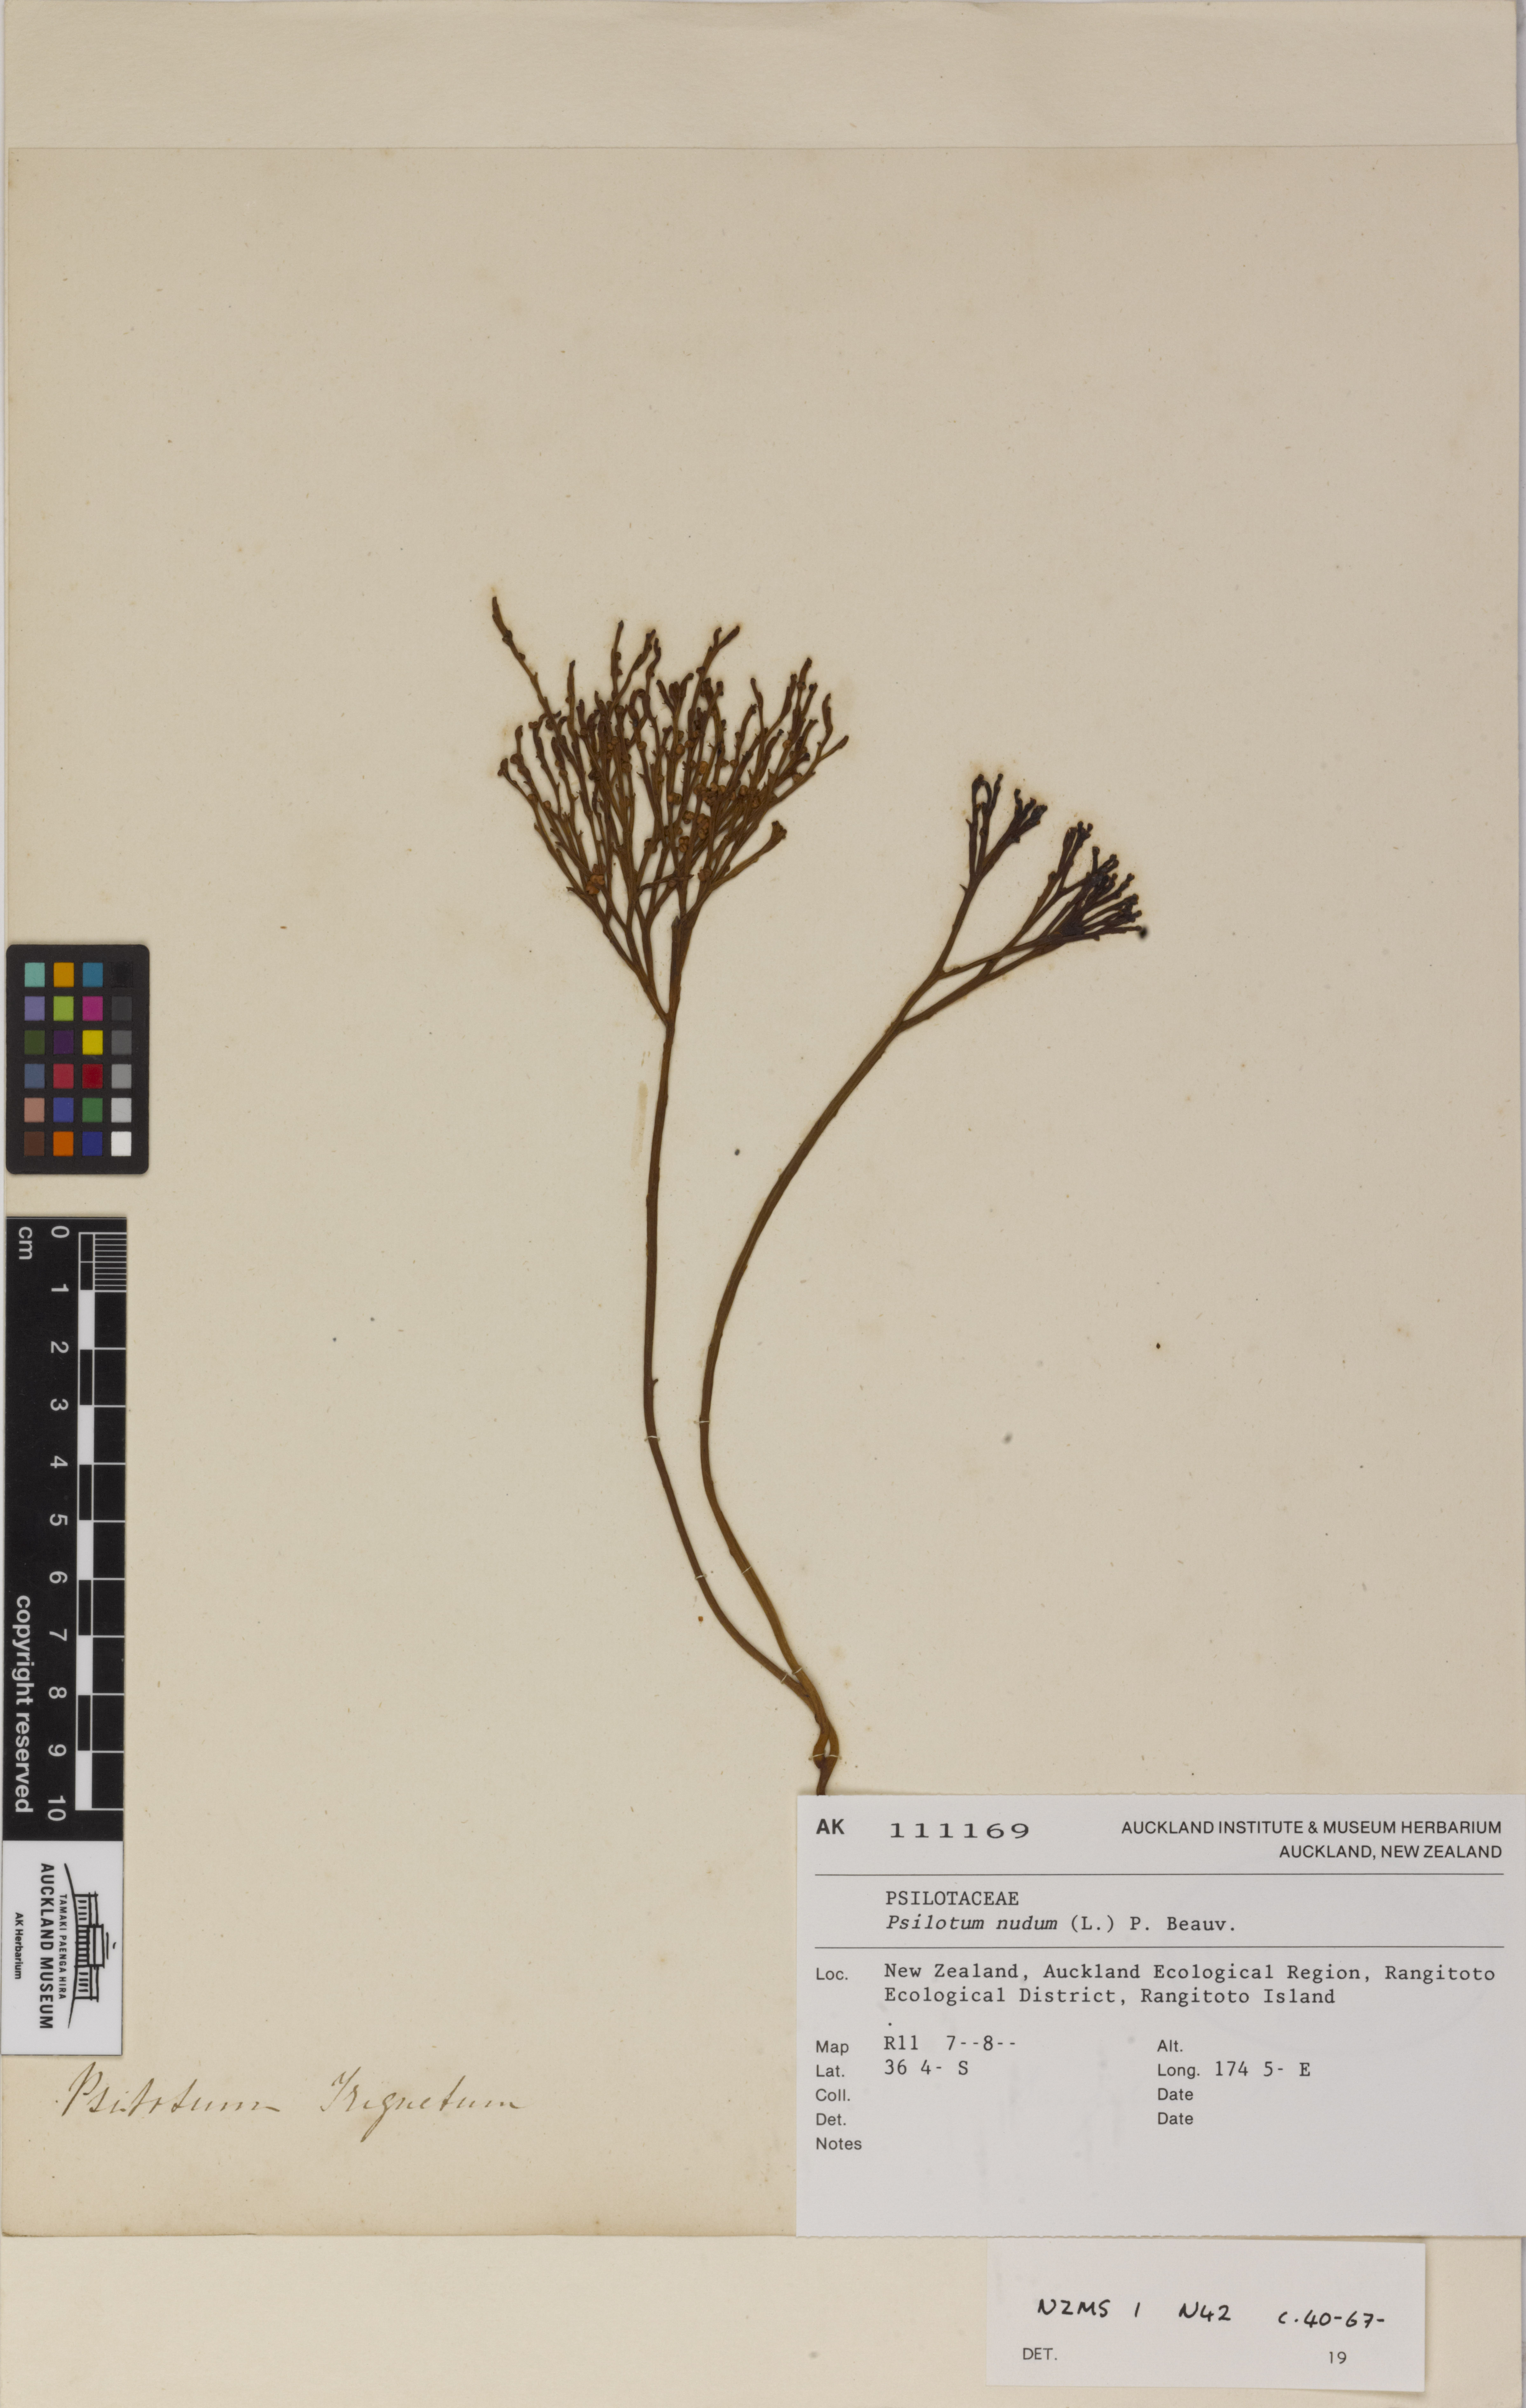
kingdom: Plantae
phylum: Tracheophyta
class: Polypodiopsida
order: Psilotales
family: Psilotaceae
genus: Psilotum
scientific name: Psilotum nudum
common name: Skeleton fork fern
